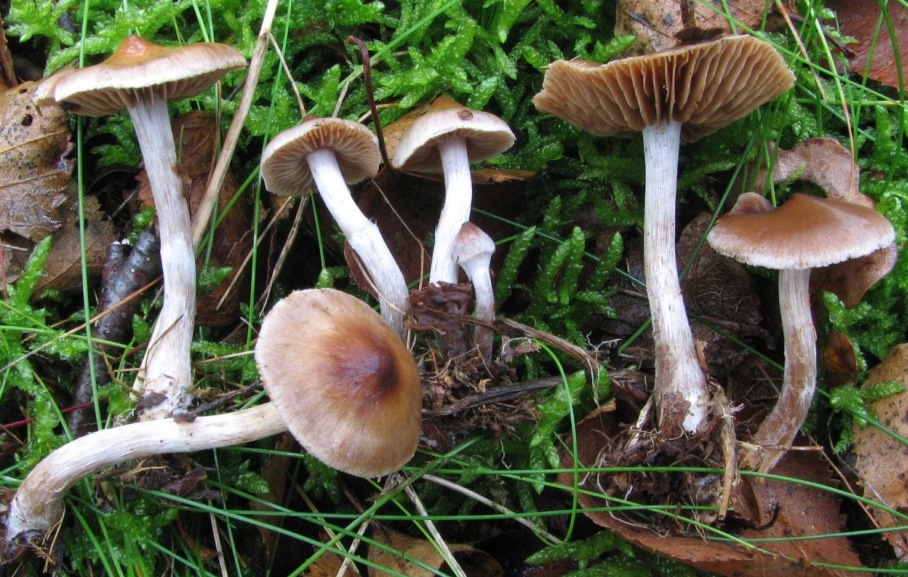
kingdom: Fungi
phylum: Basidiomycota
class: Agaricomycetes
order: Agaricales
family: Cortinariaceae
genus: Cortinarius
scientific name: Cortinarius nigrocuspidatus
